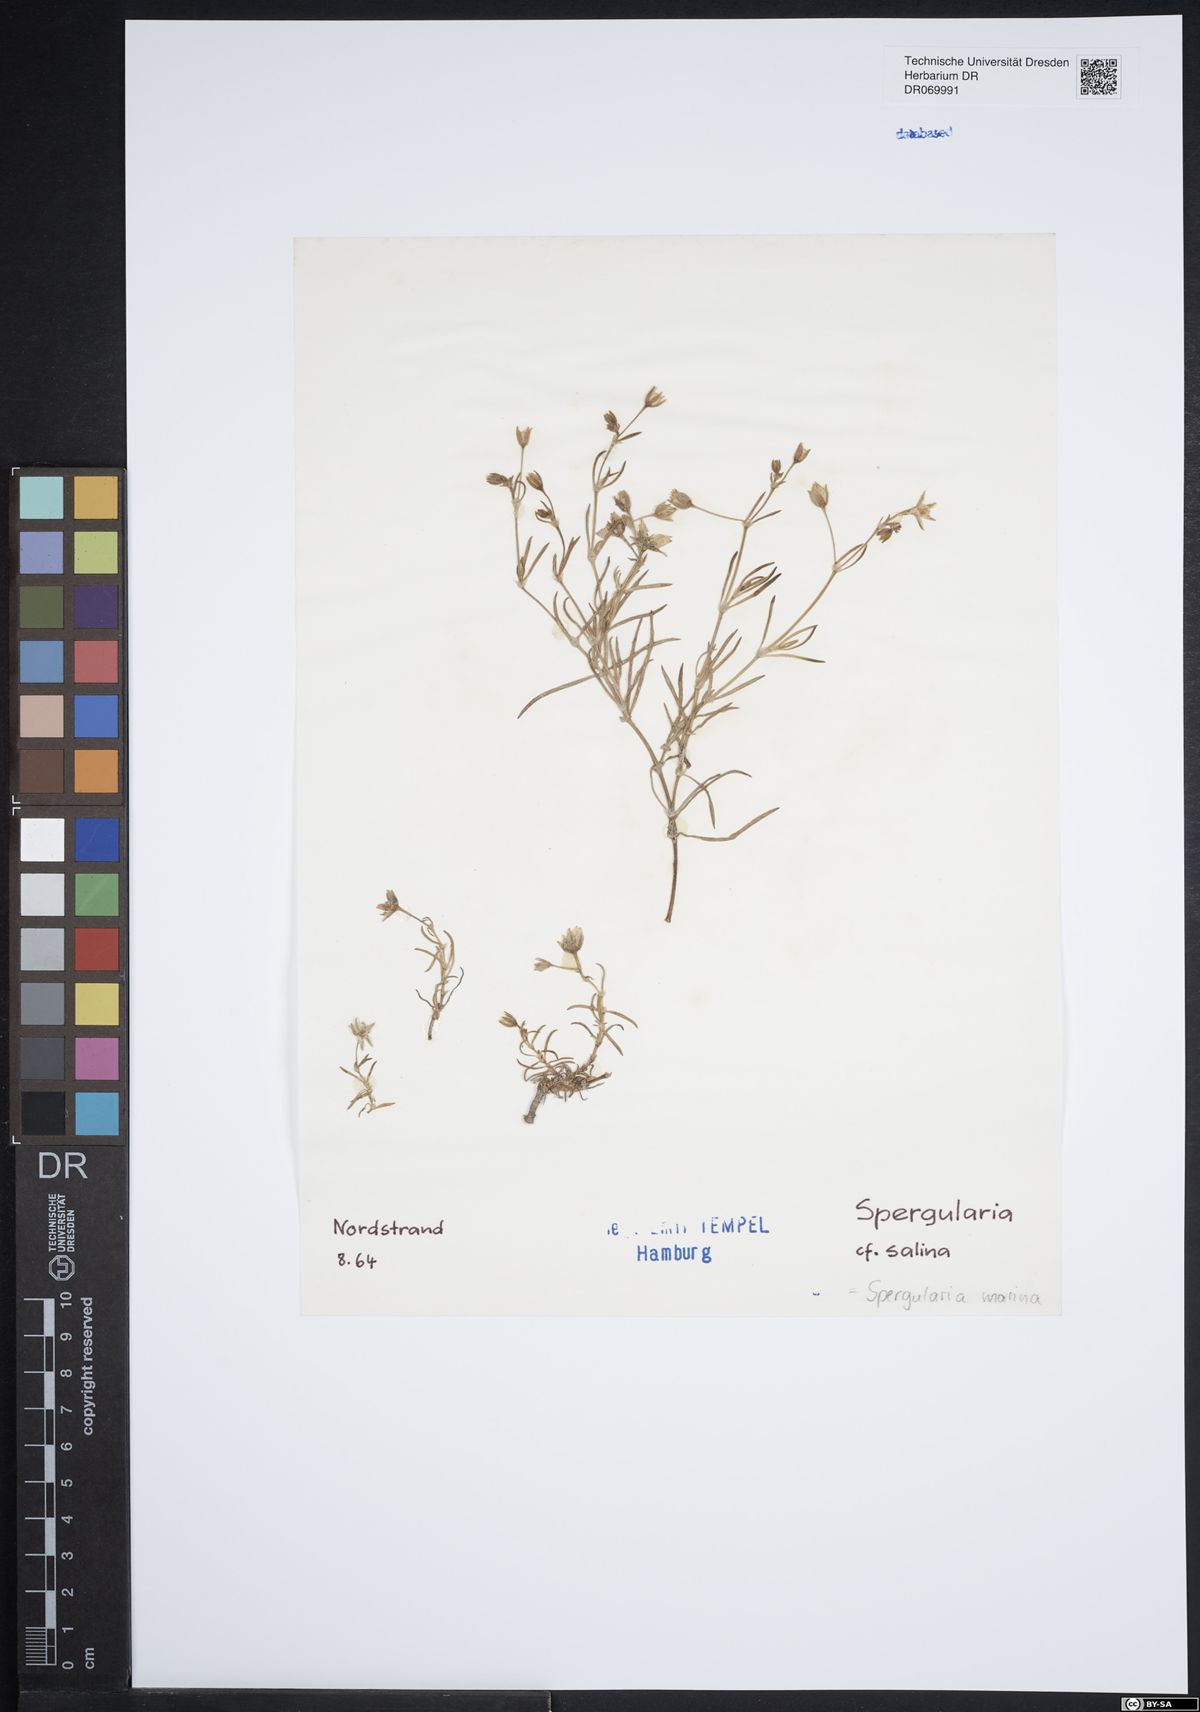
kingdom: Plantae
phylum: Tracheophyta
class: Magnoliopsida
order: Caryophyllales
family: Caryophyllaceae
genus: Spergularia
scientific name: Spergularia marina
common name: Lesser sea-spurrey
